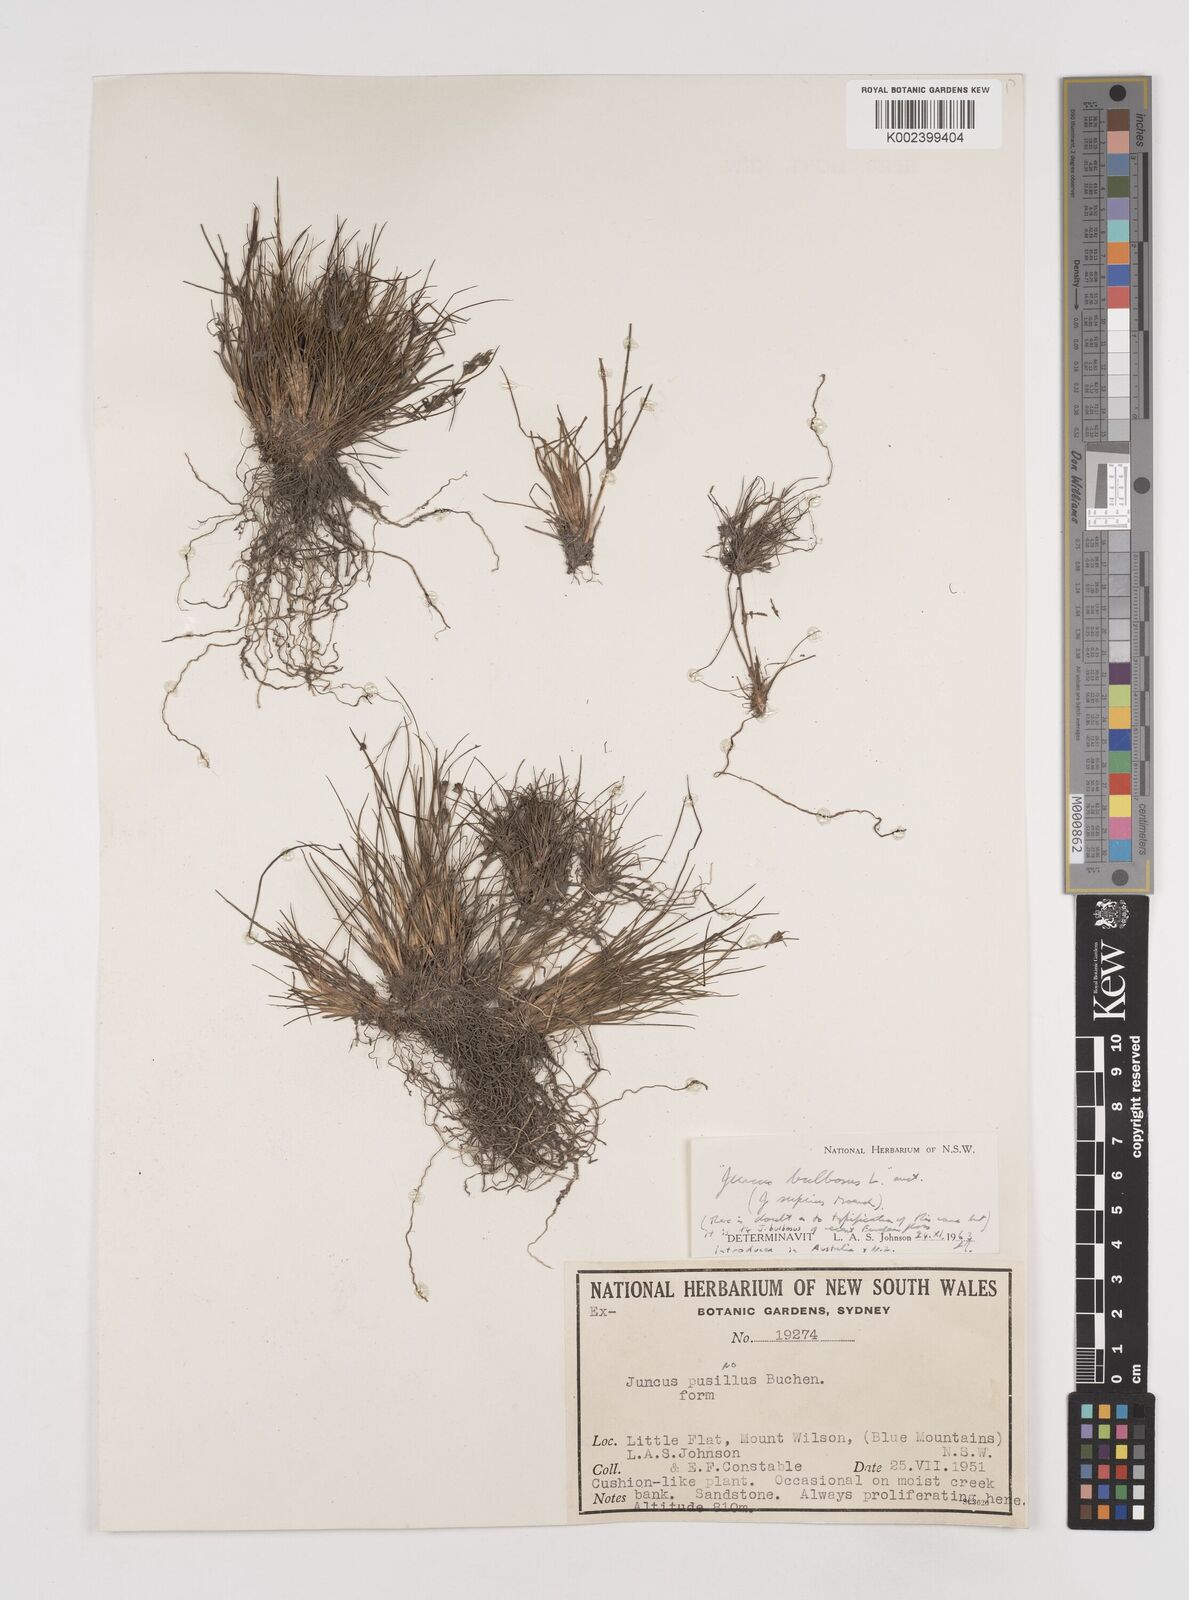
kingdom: Plantae
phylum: Tracheophyta
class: Liliopsida
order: Poales
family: Juncaceae
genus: Juncus
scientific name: Juncus bulbosus
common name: Bulbous rush
